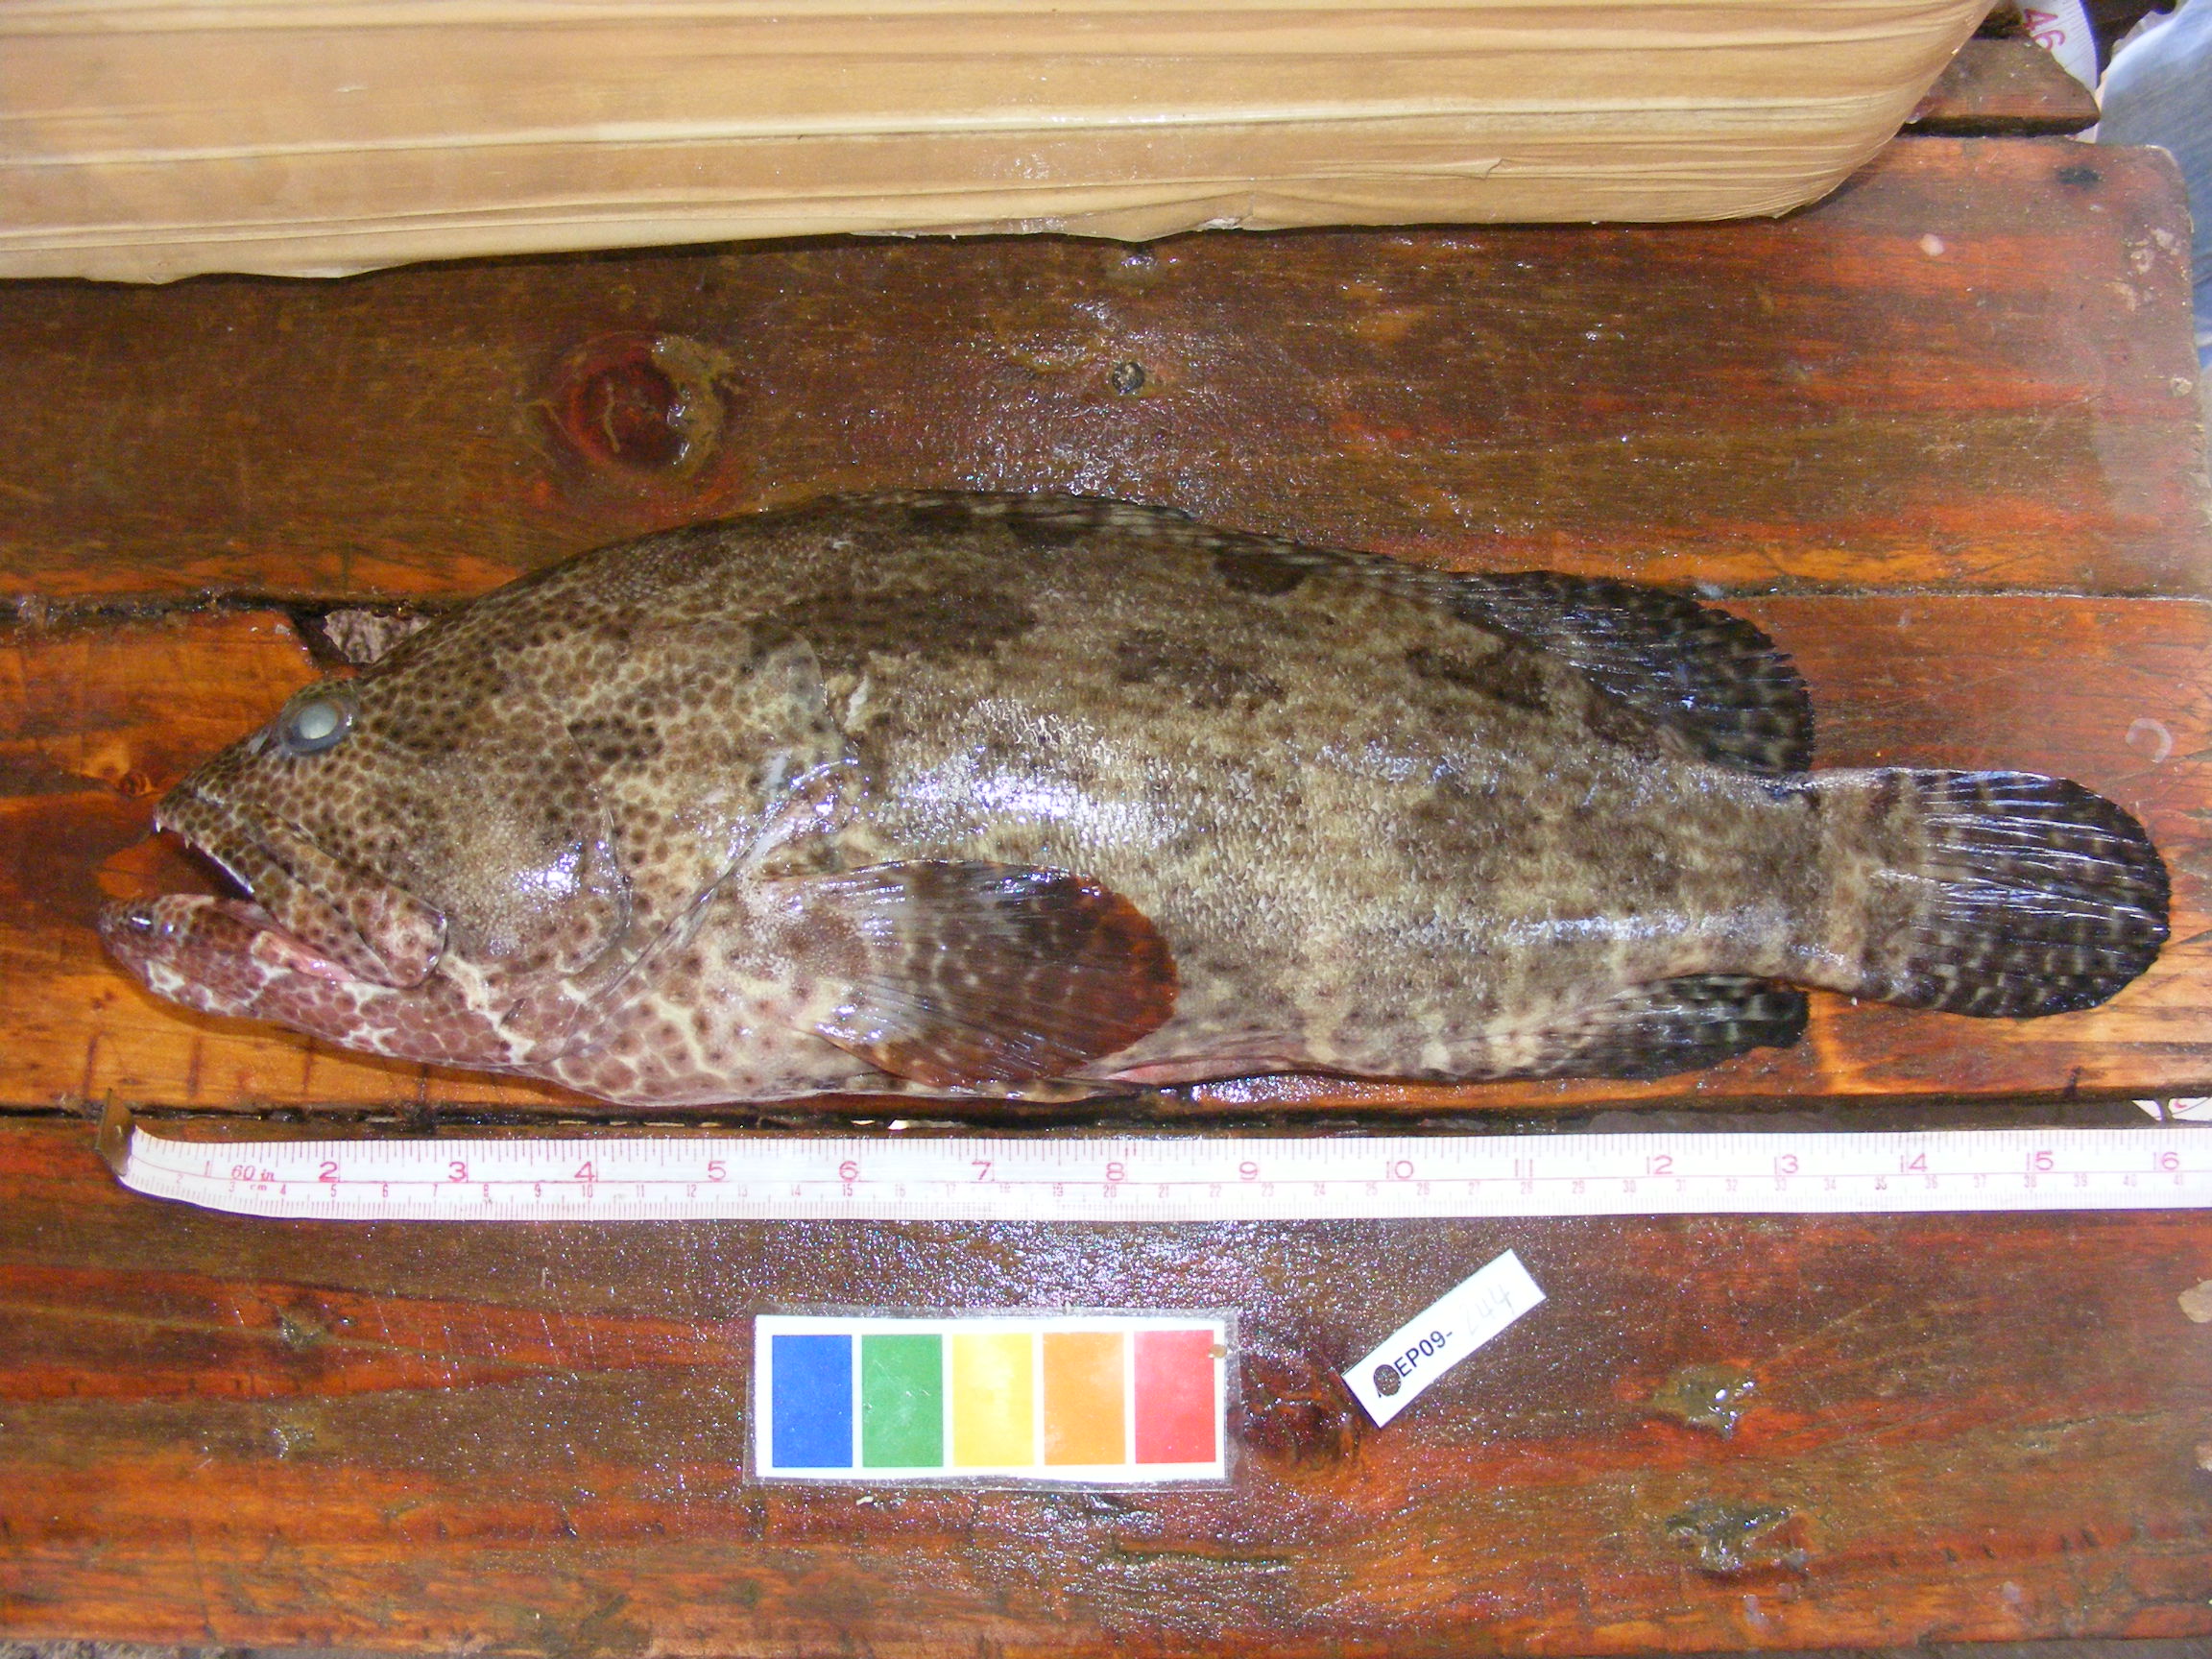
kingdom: Animalia
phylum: Chordata
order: Perciformes
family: Serranidae
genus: Epinephelus
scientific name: Epinephelus fuscoguttatus
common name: Brown-marbled grouper
